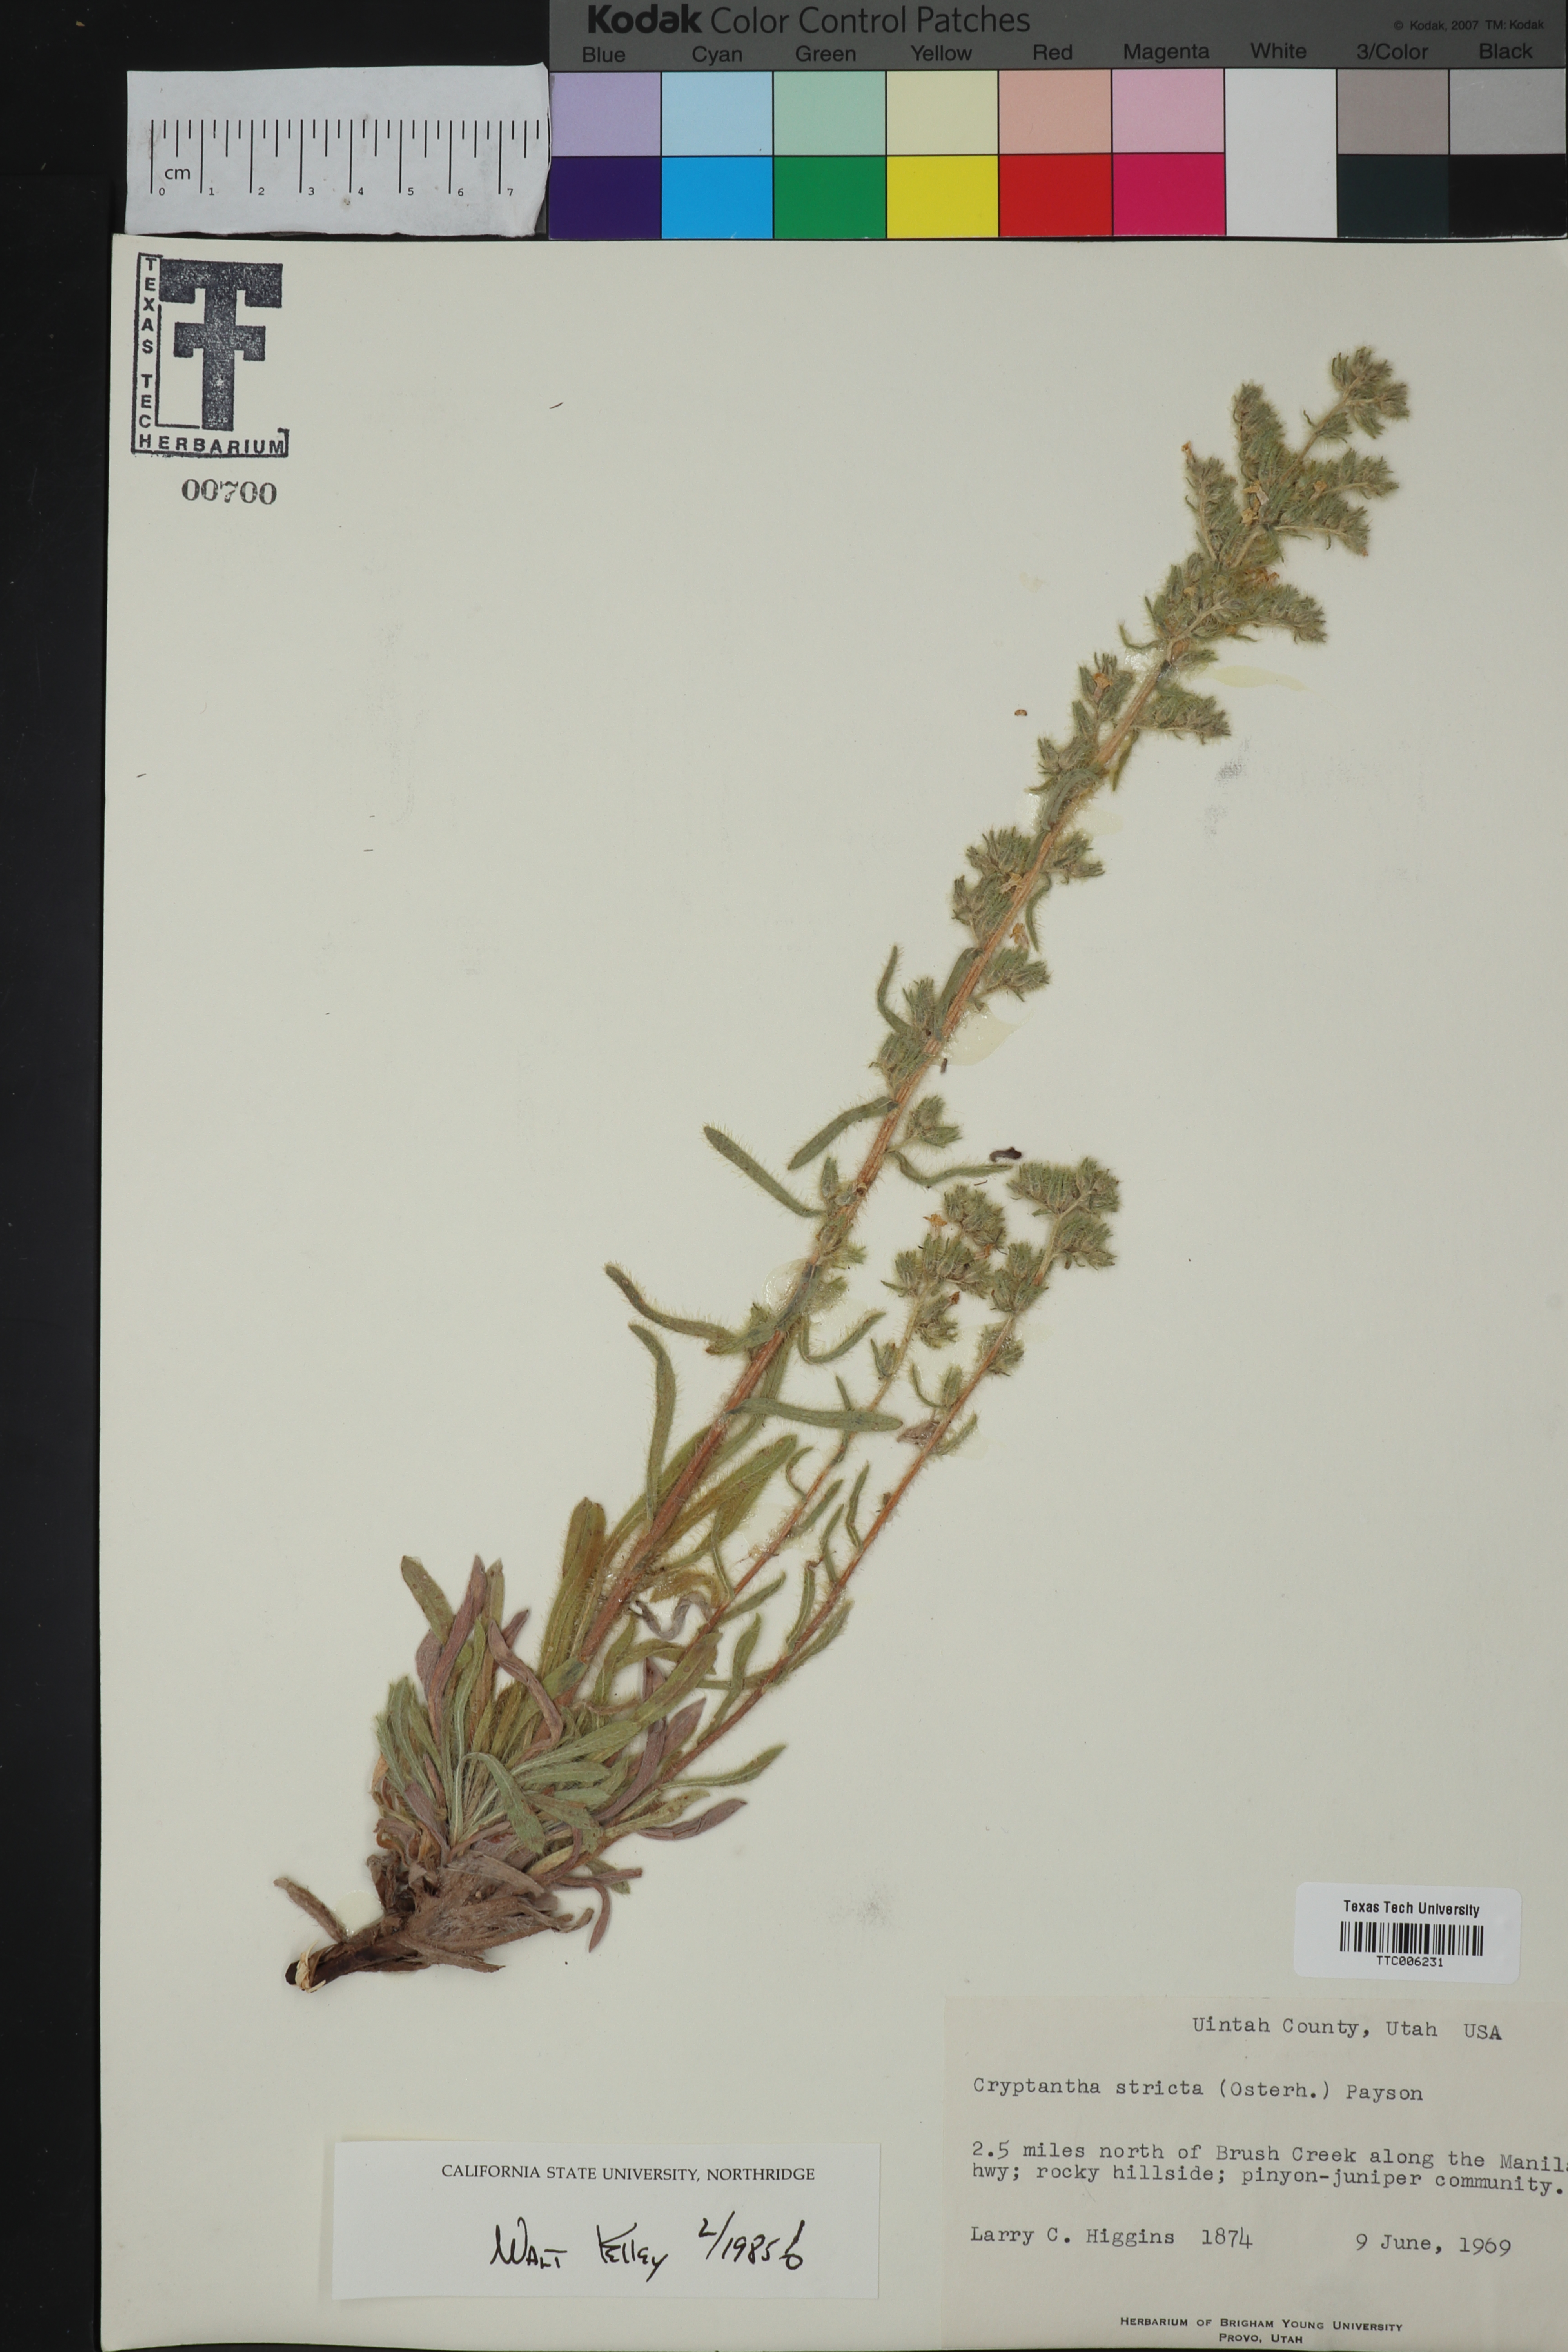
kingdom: Plantae
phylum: Tracheophyta
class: Magnoliopsida
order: Boraginales
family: Boraginaceae
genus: Oreocarya
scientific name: Oreocarya stricta
